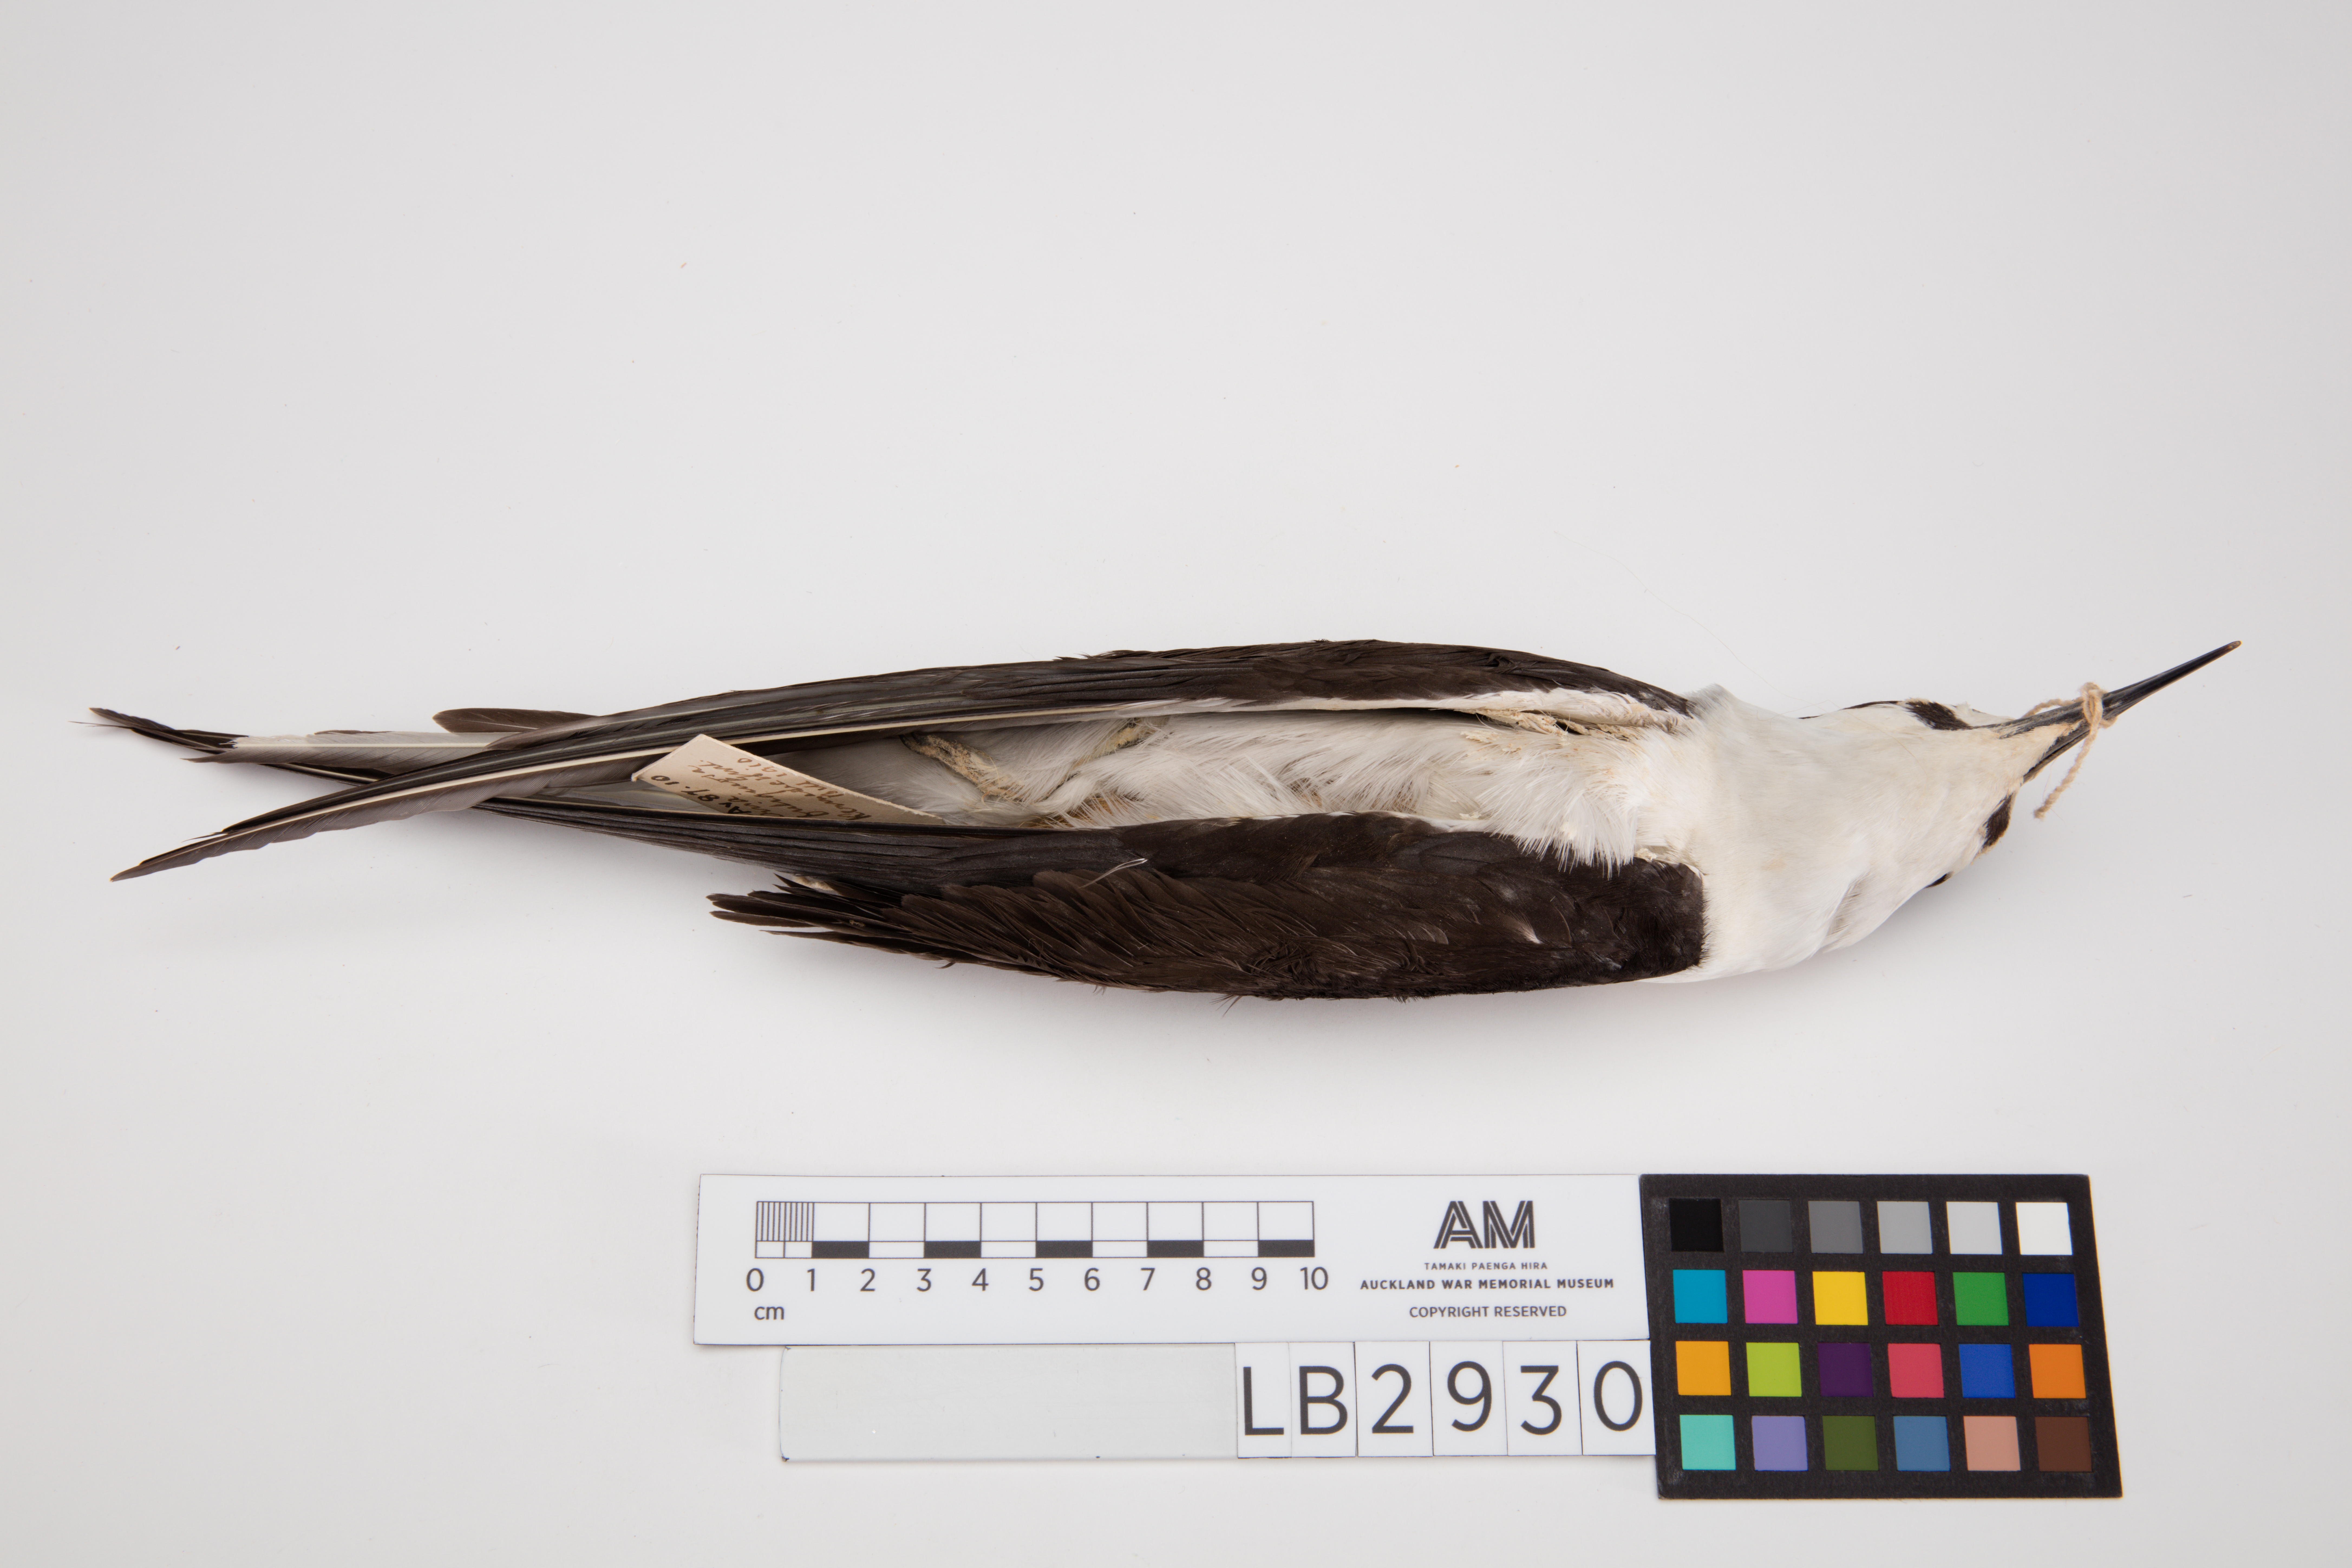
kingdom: Animalia
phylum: Chordata
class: Aves
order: Charadriiformes
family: Laridae
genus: Onychoprion
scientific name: Onychoprion fuscatus
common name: Sooty tern
